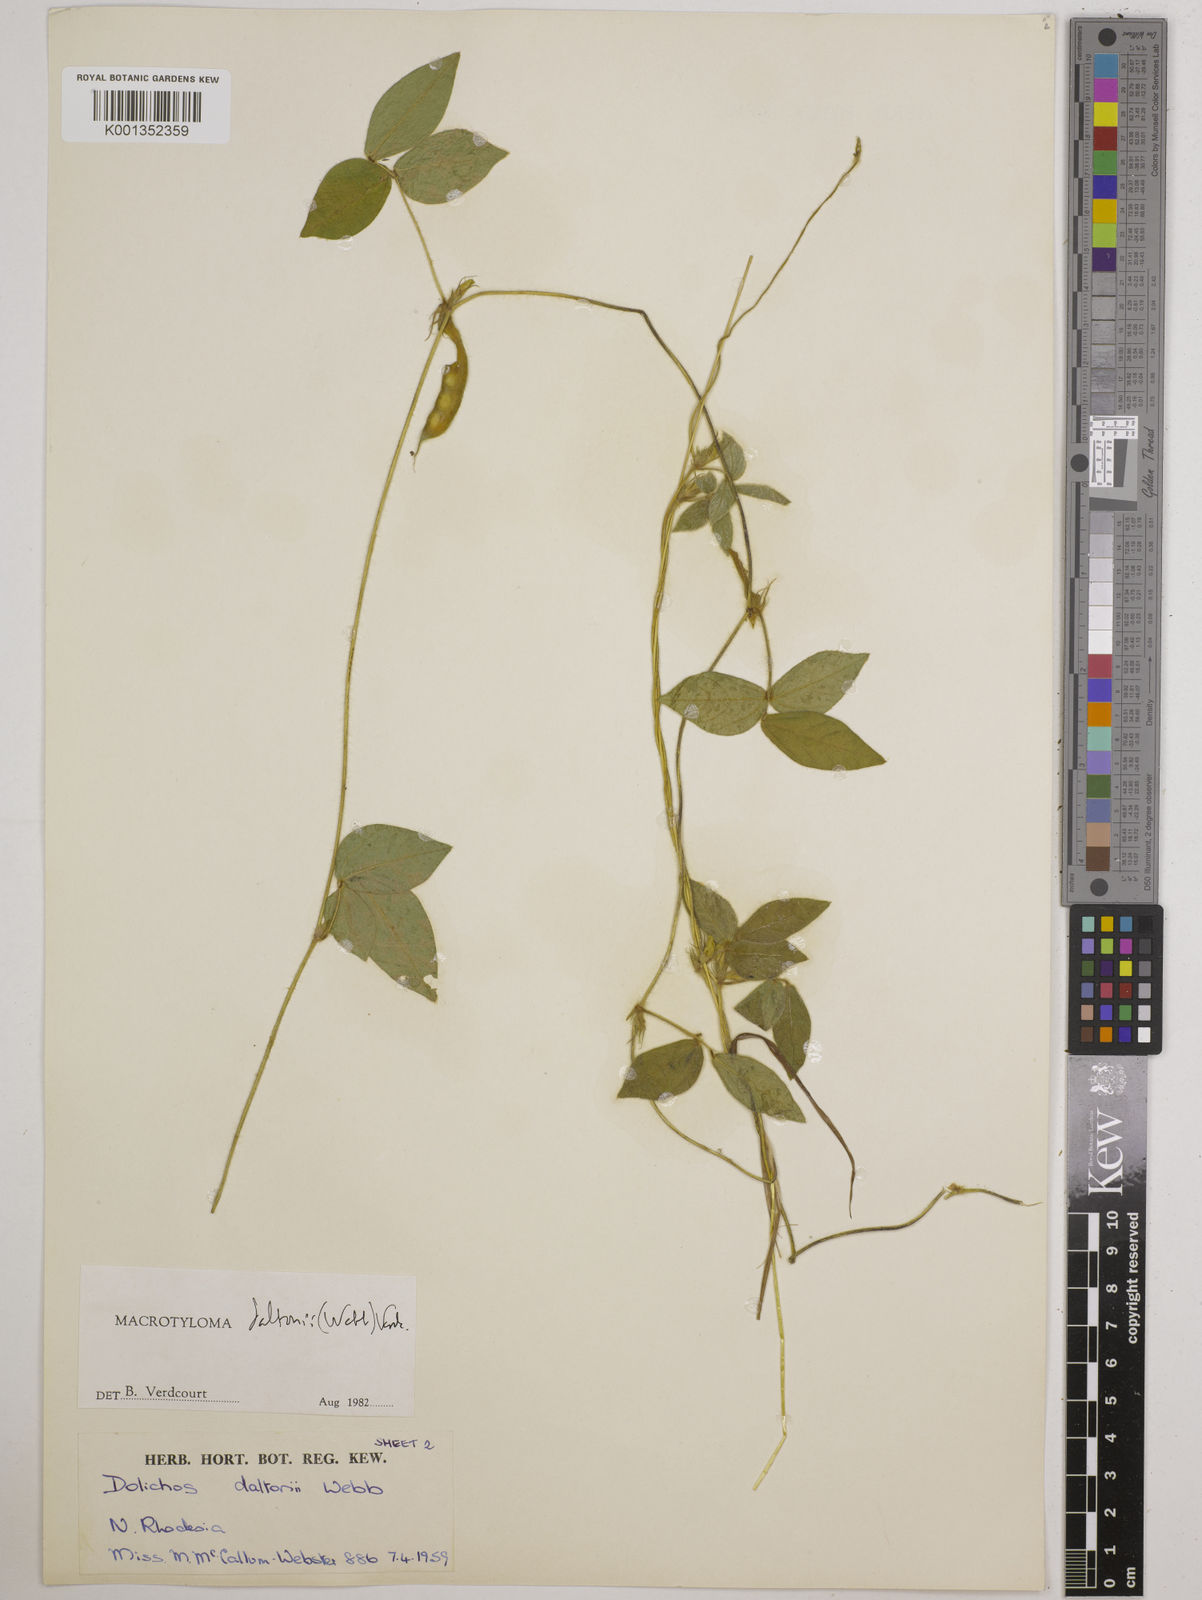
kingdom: Plantae
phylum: Tracheophyta
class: Magnoliopsida
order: Fabales
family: Fabaceae
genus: Macrotyloma
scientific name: Macrotyloma daltonii
